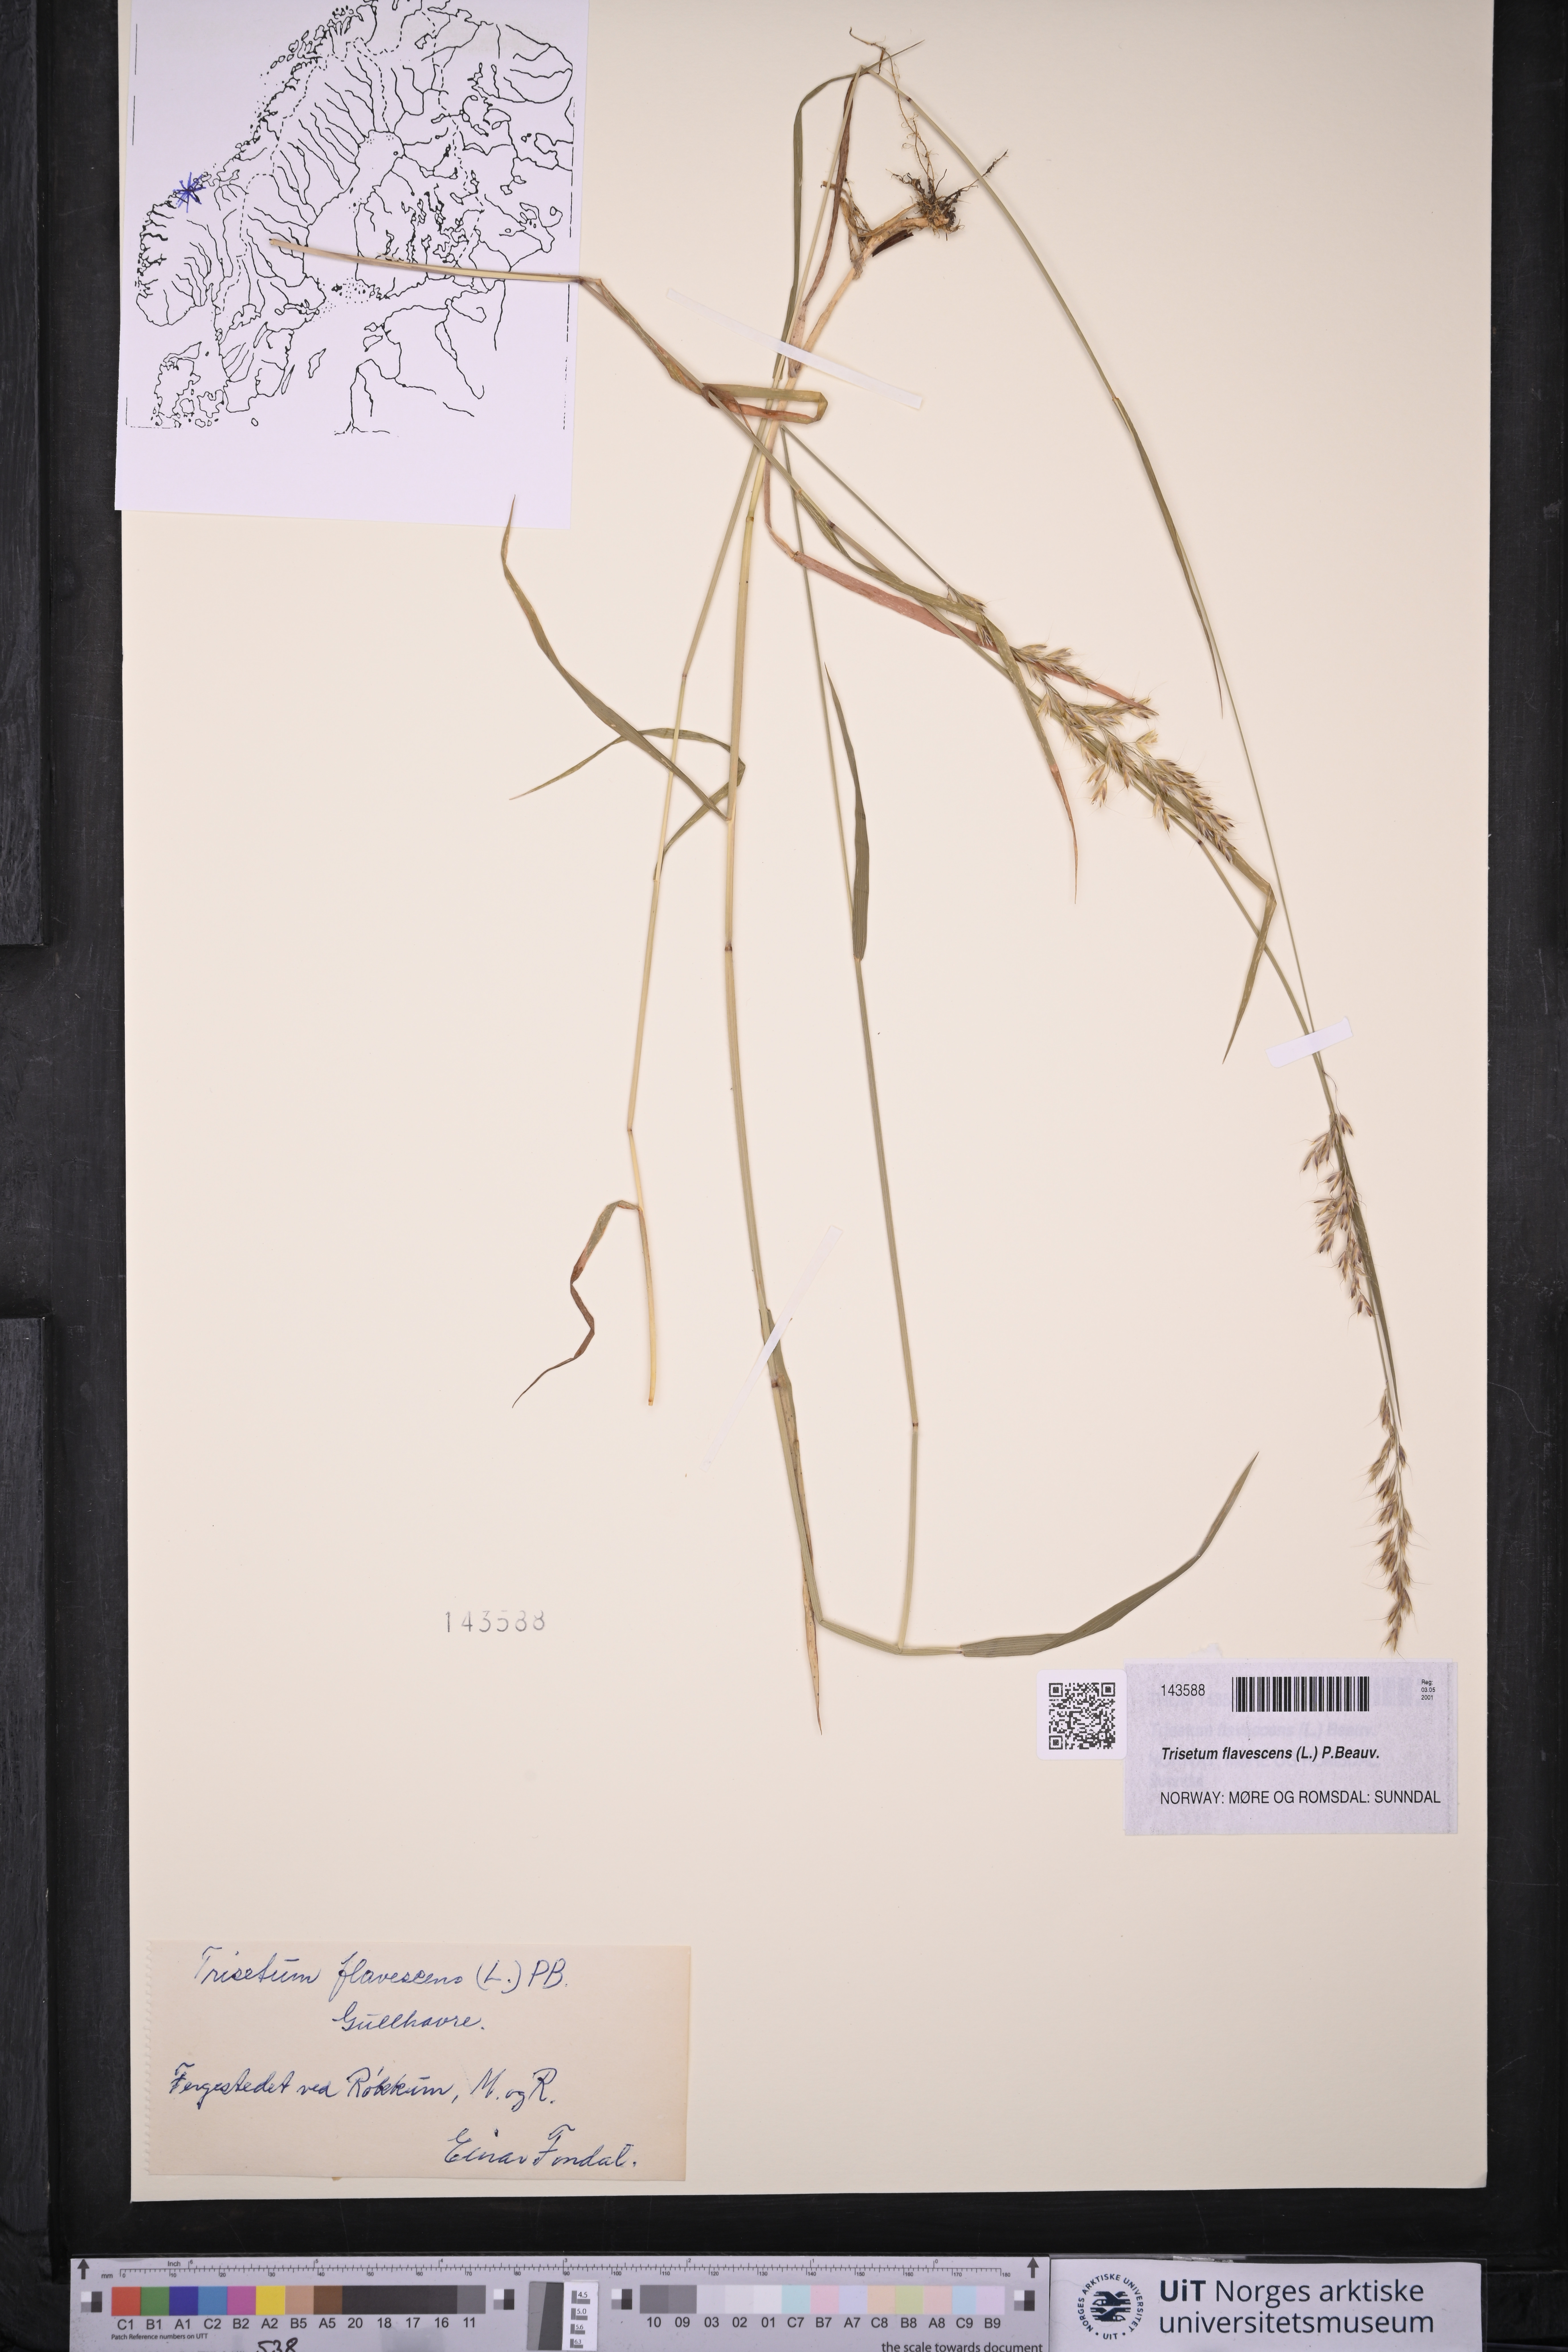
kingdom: Plantae
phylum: Tracheophyta
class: Liliopsida
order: Poales
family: Poaceae
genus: Trisetum
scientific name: Trisetum flavescens
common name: Yellow oat-grass
